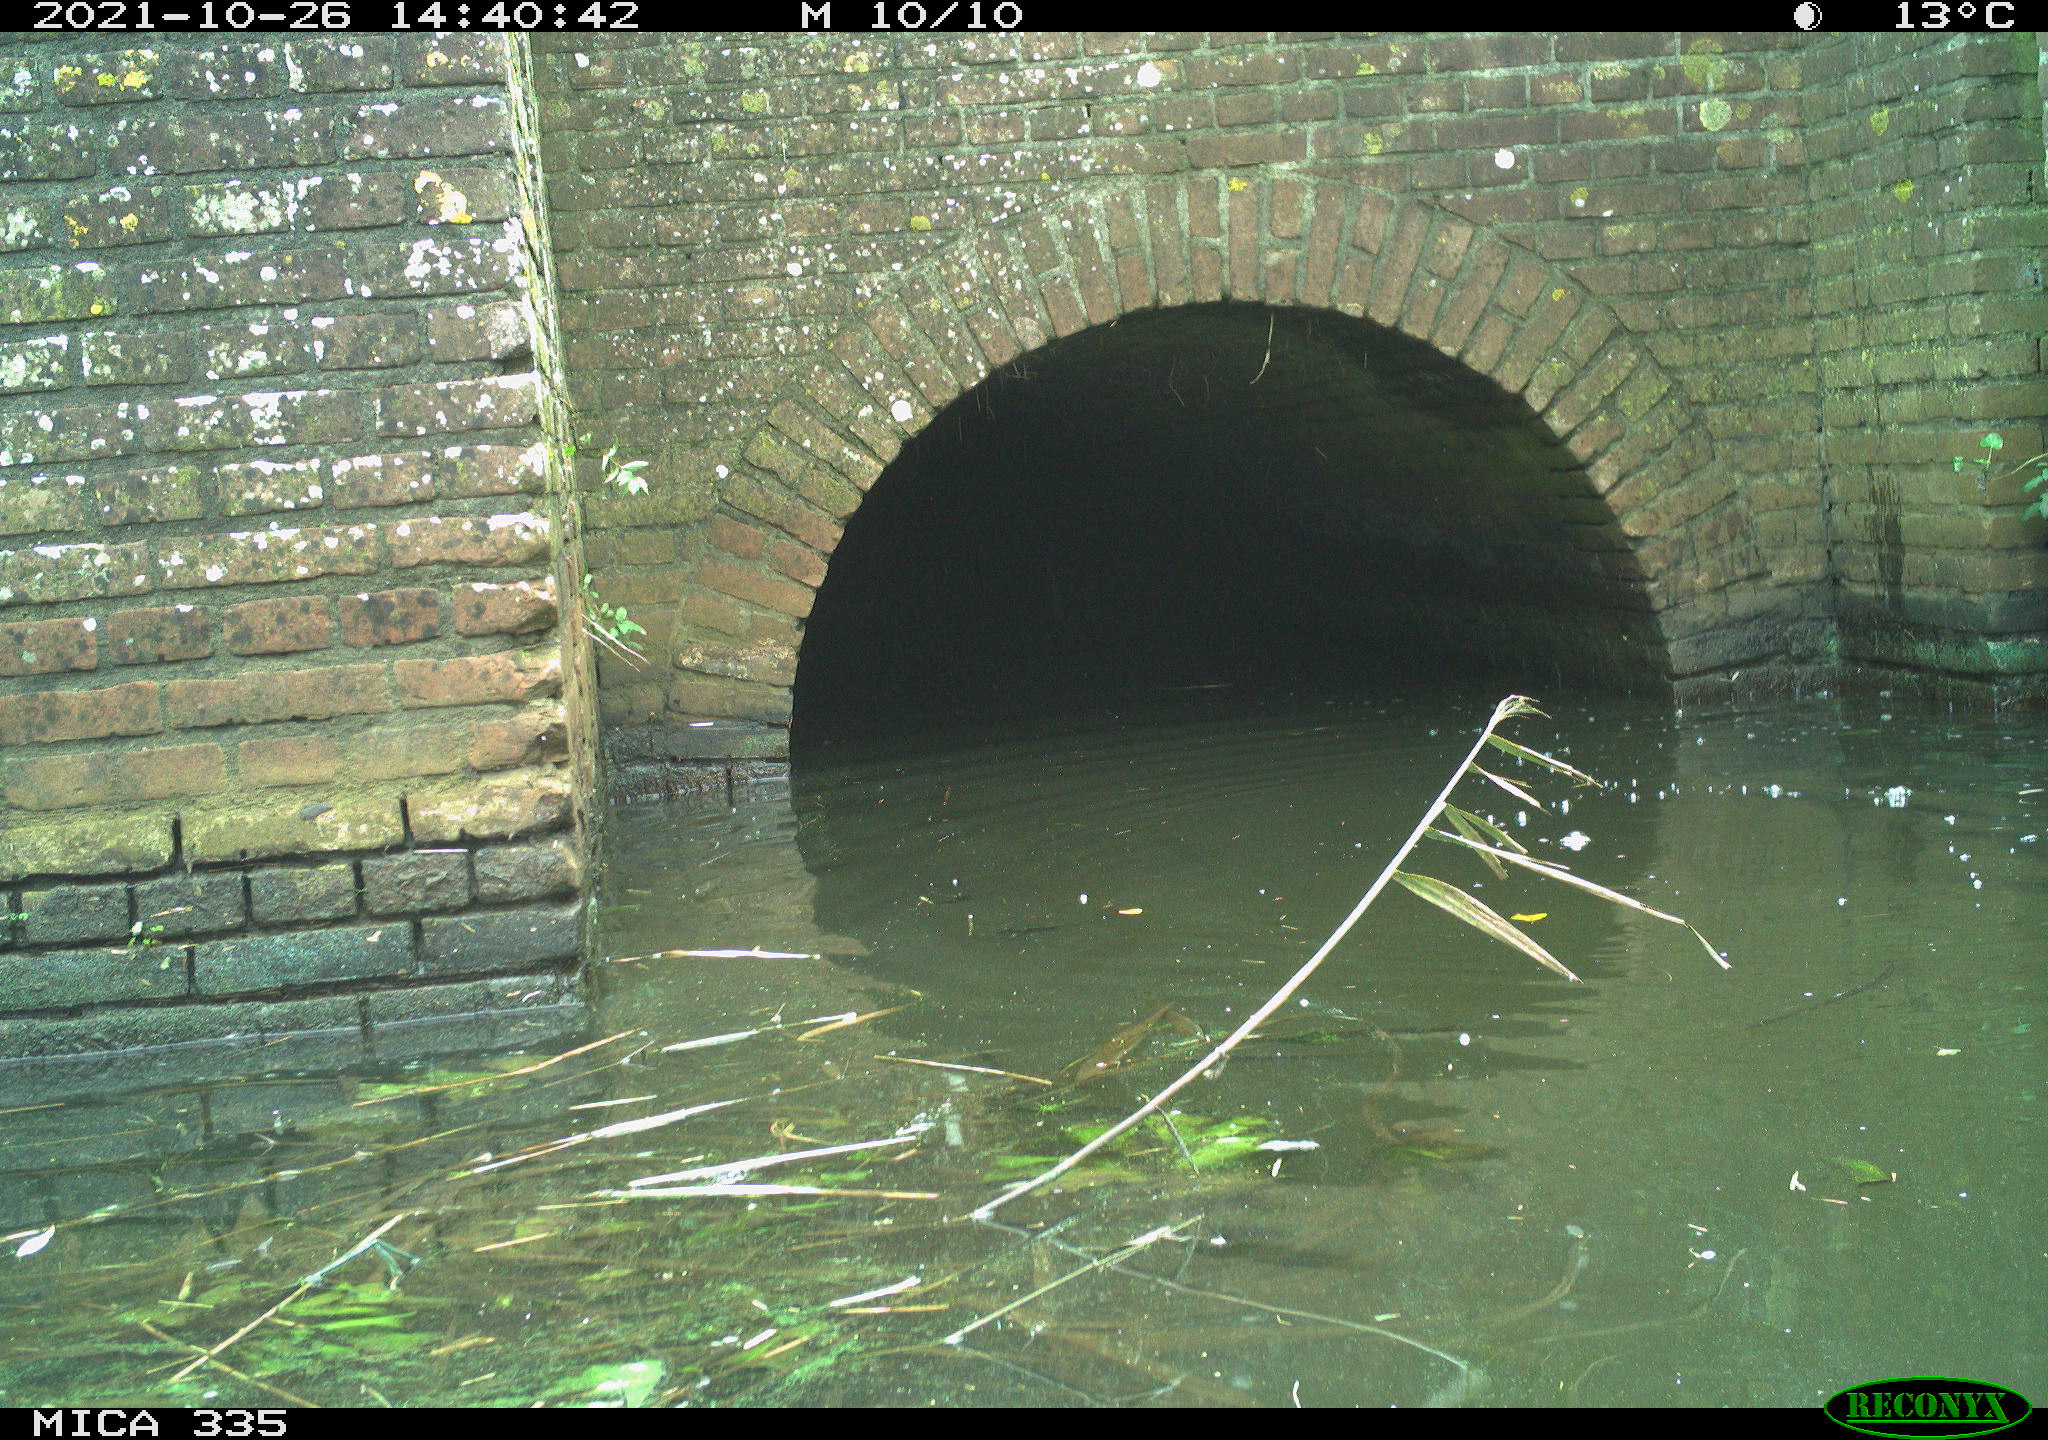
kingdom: Animalia
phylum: Chordata
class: Aves
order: Suliformes
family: Phalacrocoracidae
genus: Phalacrocorax
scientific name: Phalacrocorax carbo
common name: Great cormorant
